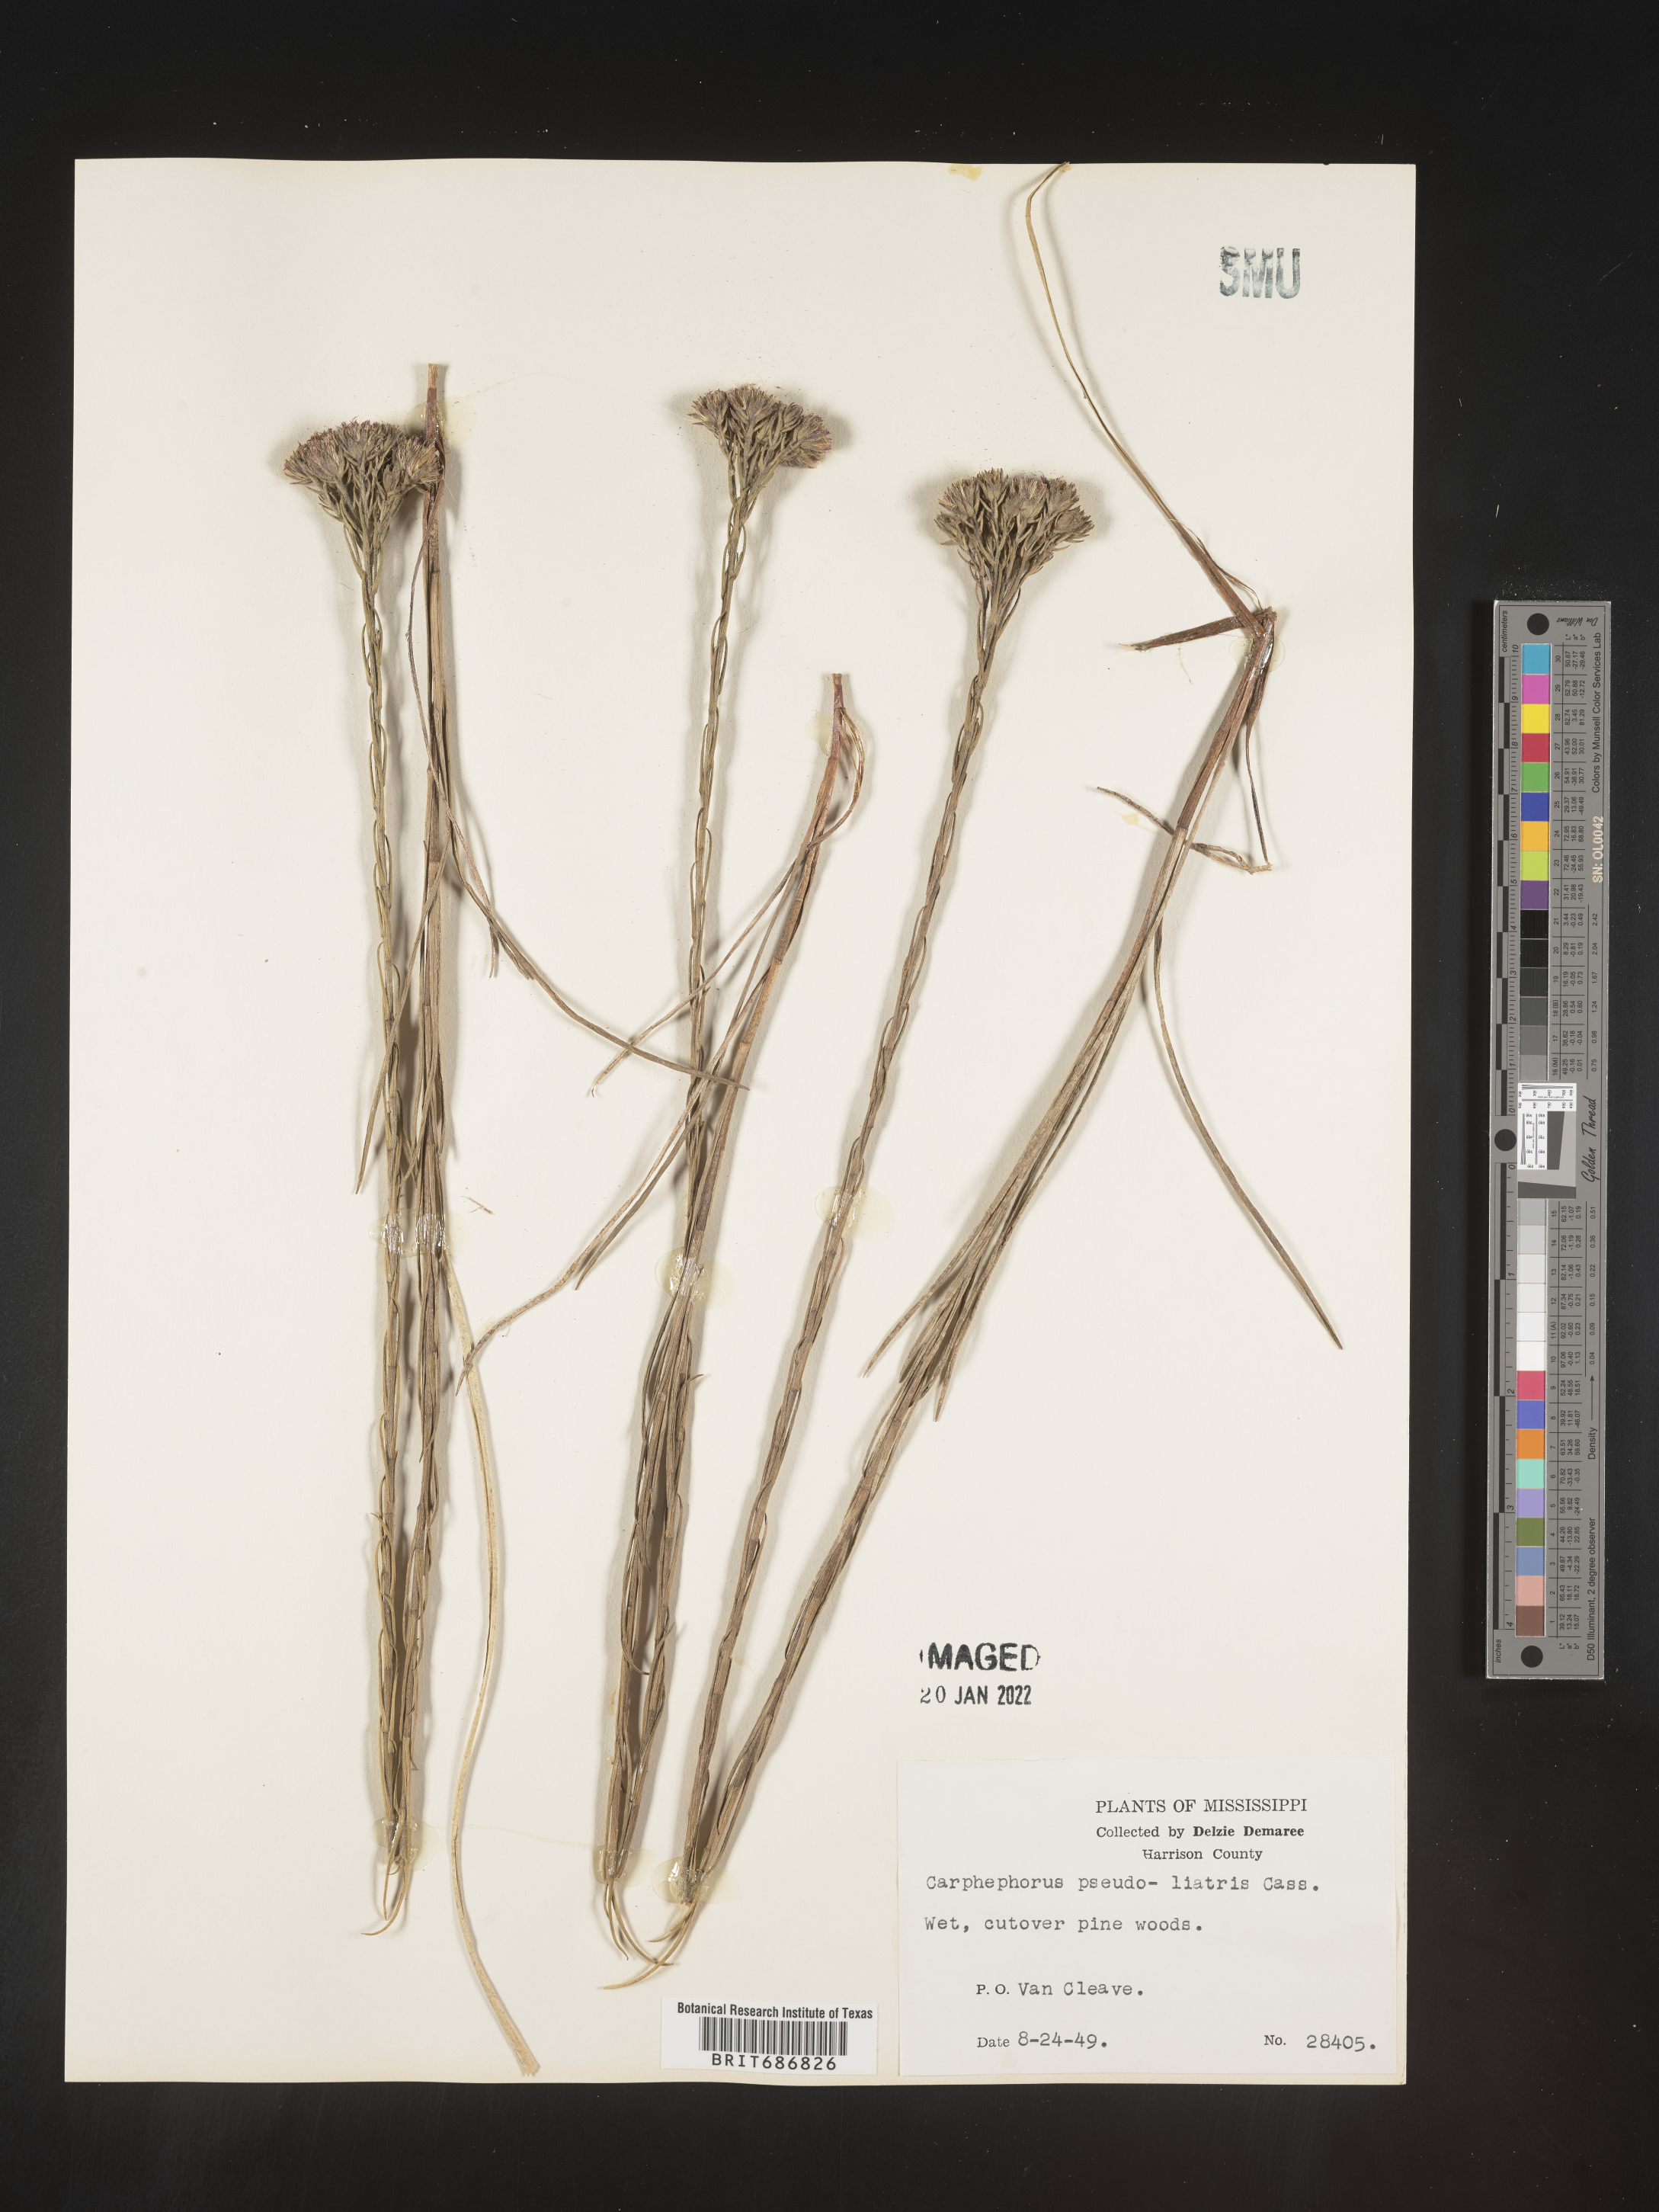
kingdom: Plantae
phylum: Tracheophyta
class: Magnoliopsida
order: Asterales
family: Asteraceae
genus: Carphephorus
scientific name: Carphephorus pseudoliatris
